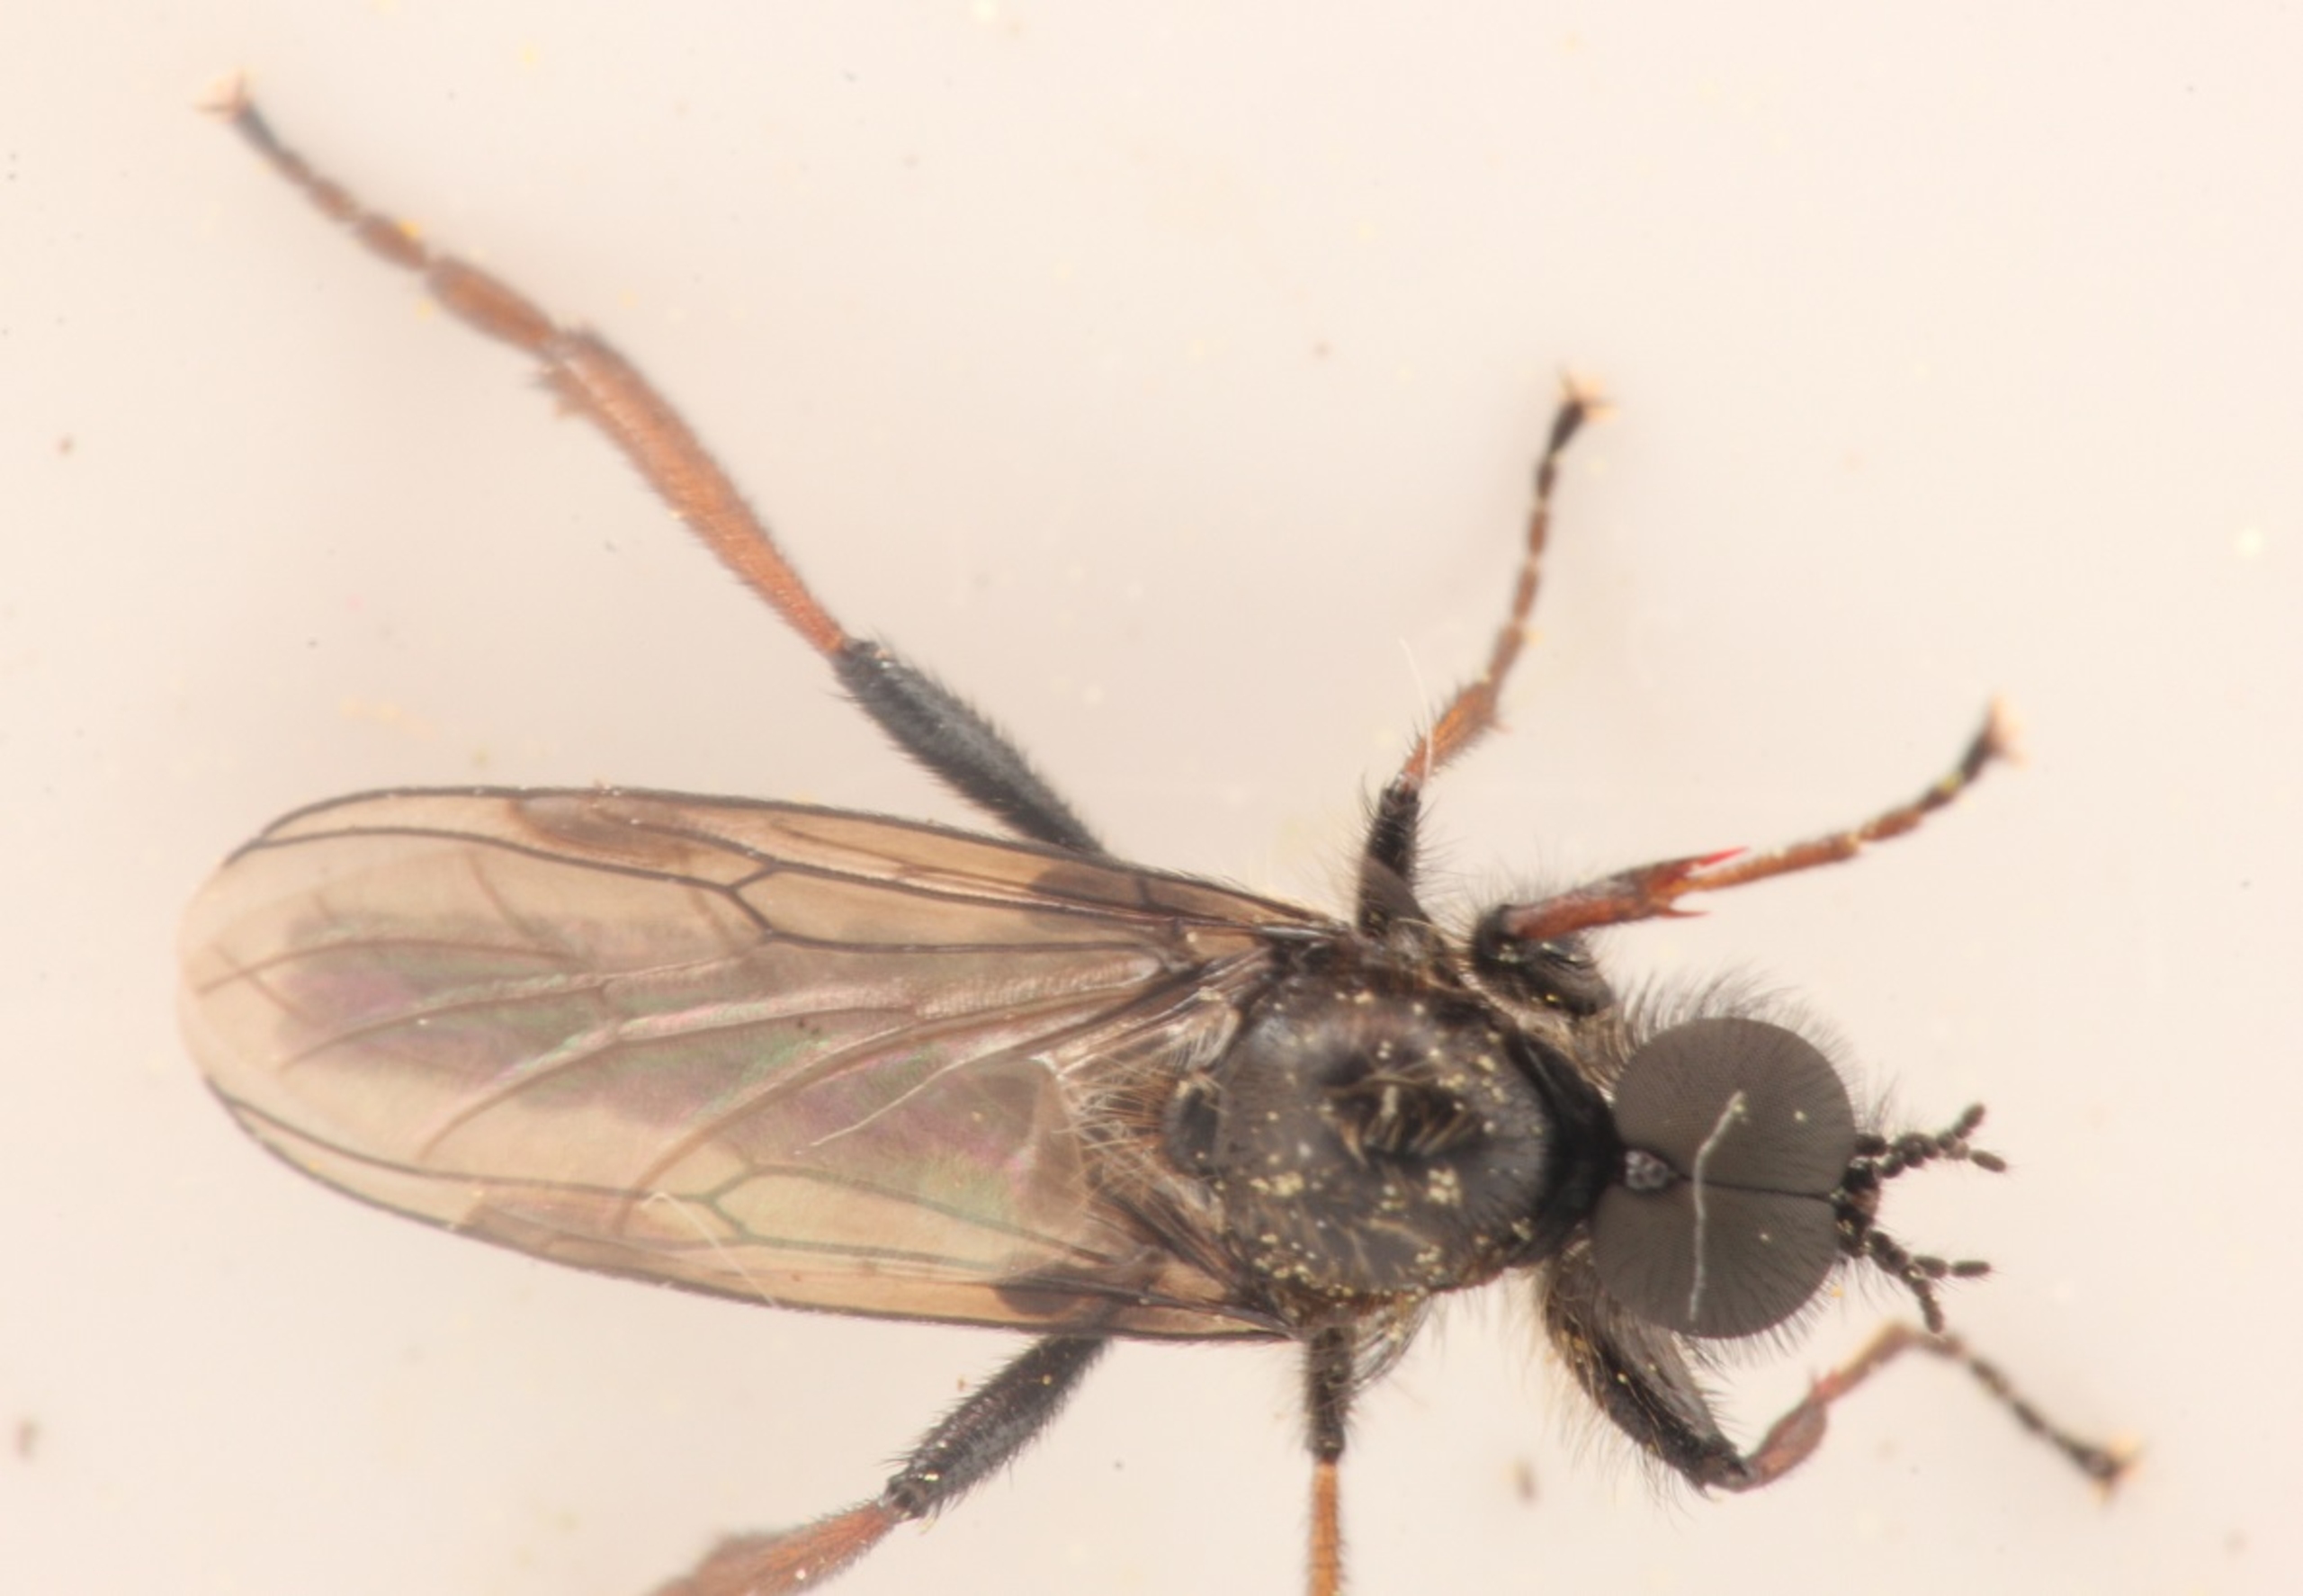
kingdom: Animalia
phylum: Arthropoda
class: Insecta
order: Diptera
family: Bibionidae
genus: Bibio
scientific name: Bibio lanigerus
